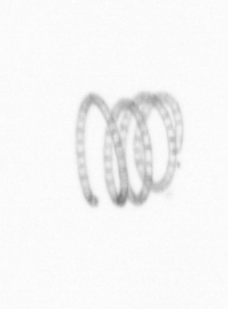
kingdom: Chromista
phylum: Ochrophyta
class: Bacillariophyceae
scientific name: Bacillariophyceae
